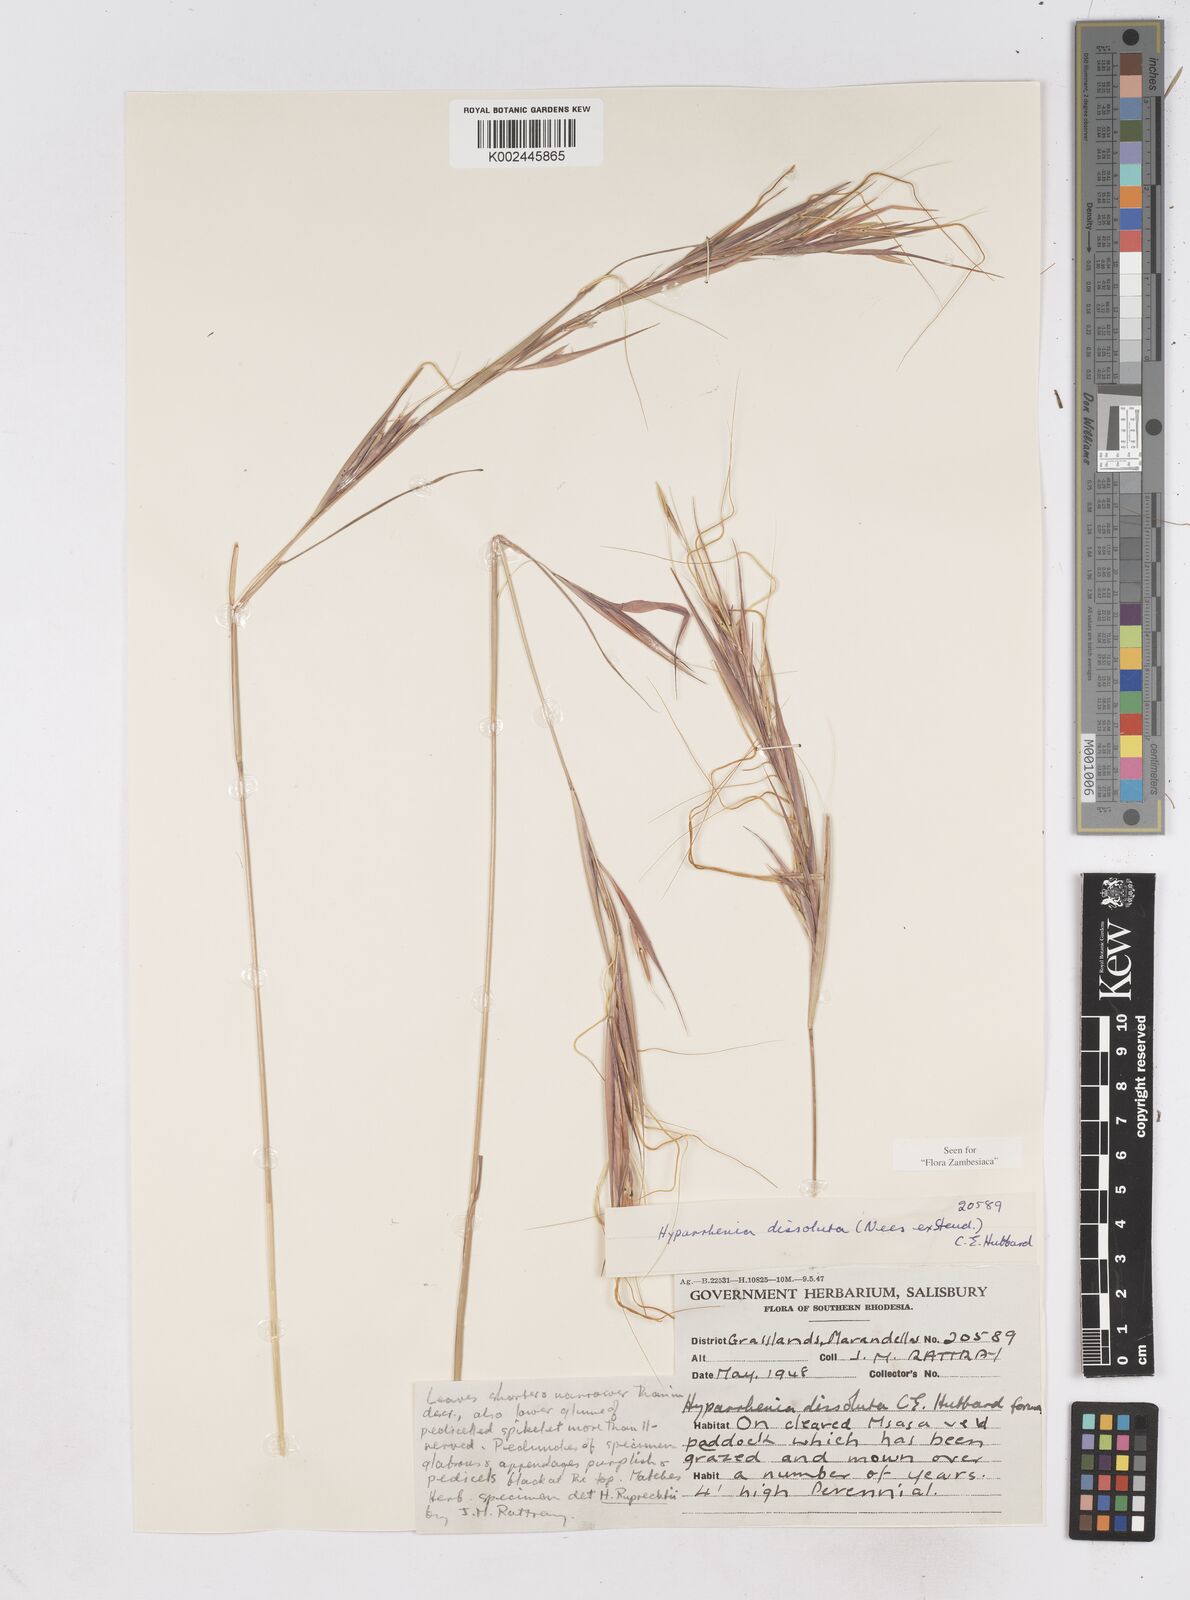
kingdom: Plantae
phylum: Tracheophyta
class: Liliopsida
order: Poales
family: Poaceae
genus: Hyperthelia
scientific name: Hyperthelia dissoluta
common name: Yellow thatching grass
